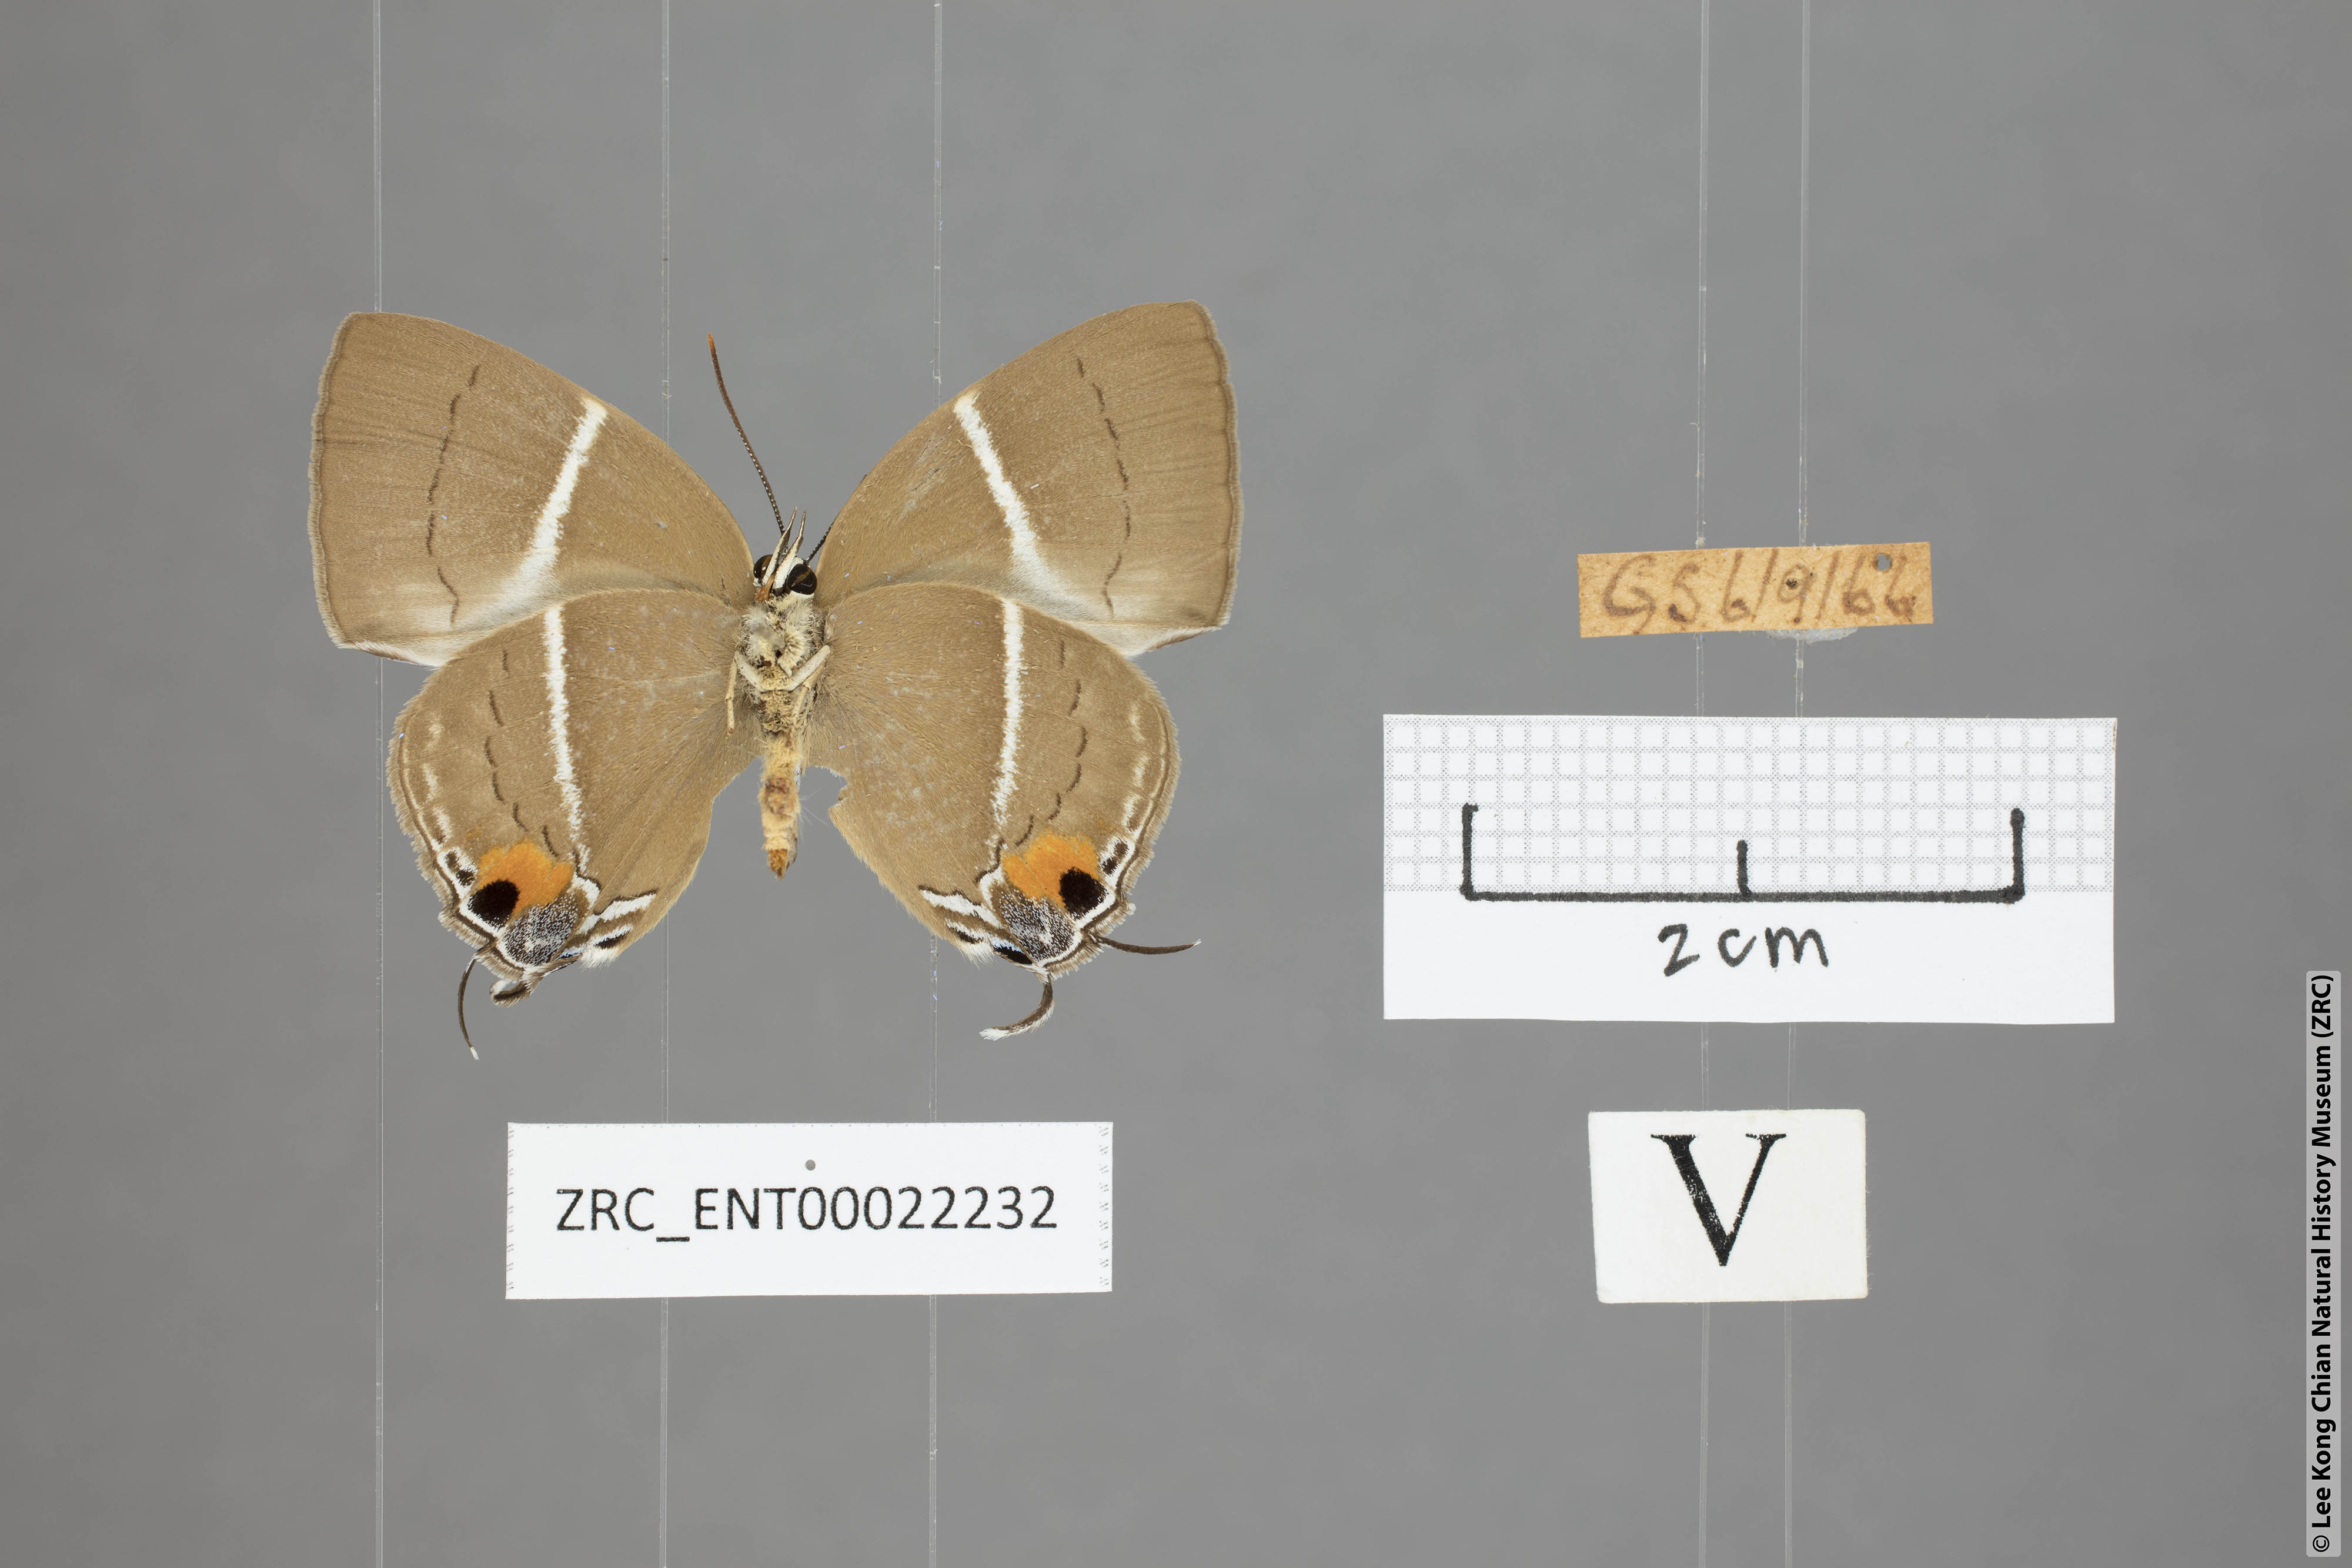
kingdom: Animalia
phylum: Arthropoda
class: Insecta
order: Lepidoptera
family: Lycaenidae
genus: Tajuria
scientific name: Tajuria
